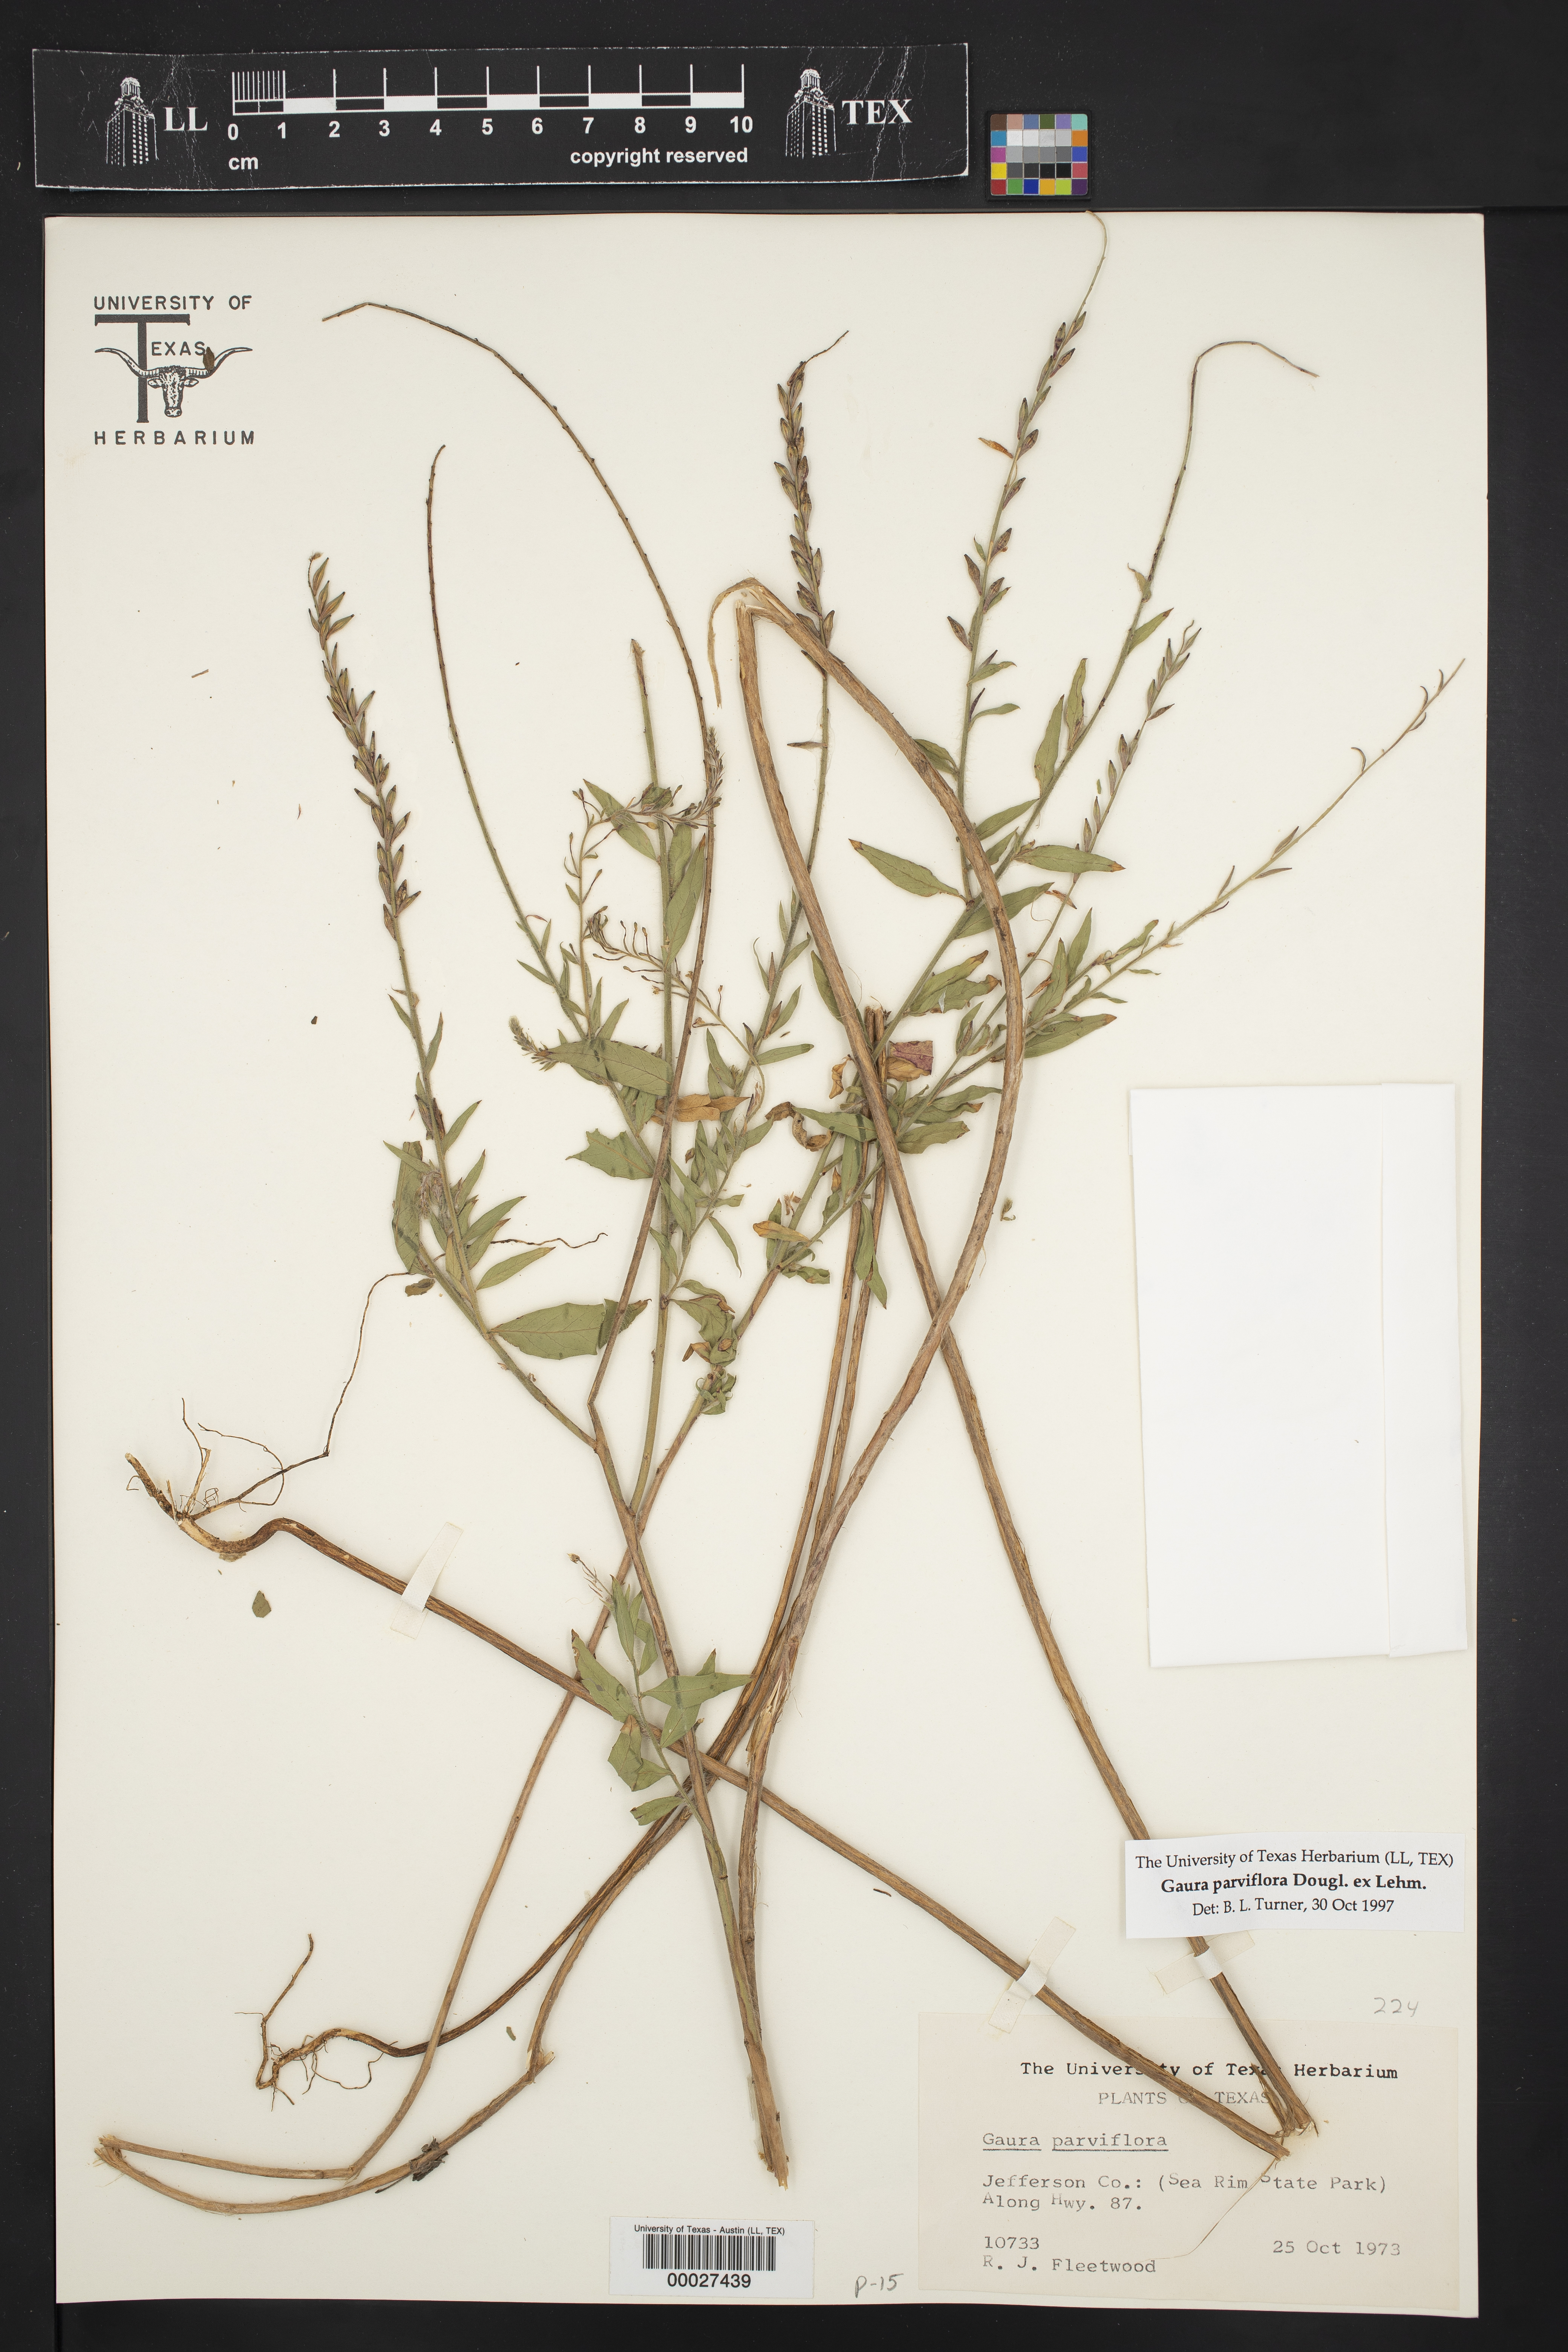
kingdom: Plantae
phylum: Tracheophyta
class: Magnoliopsida
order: Myrtales
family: Onagraceae
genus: Oenothera
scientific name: Oenothera curtiflora
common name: Velvetweed
